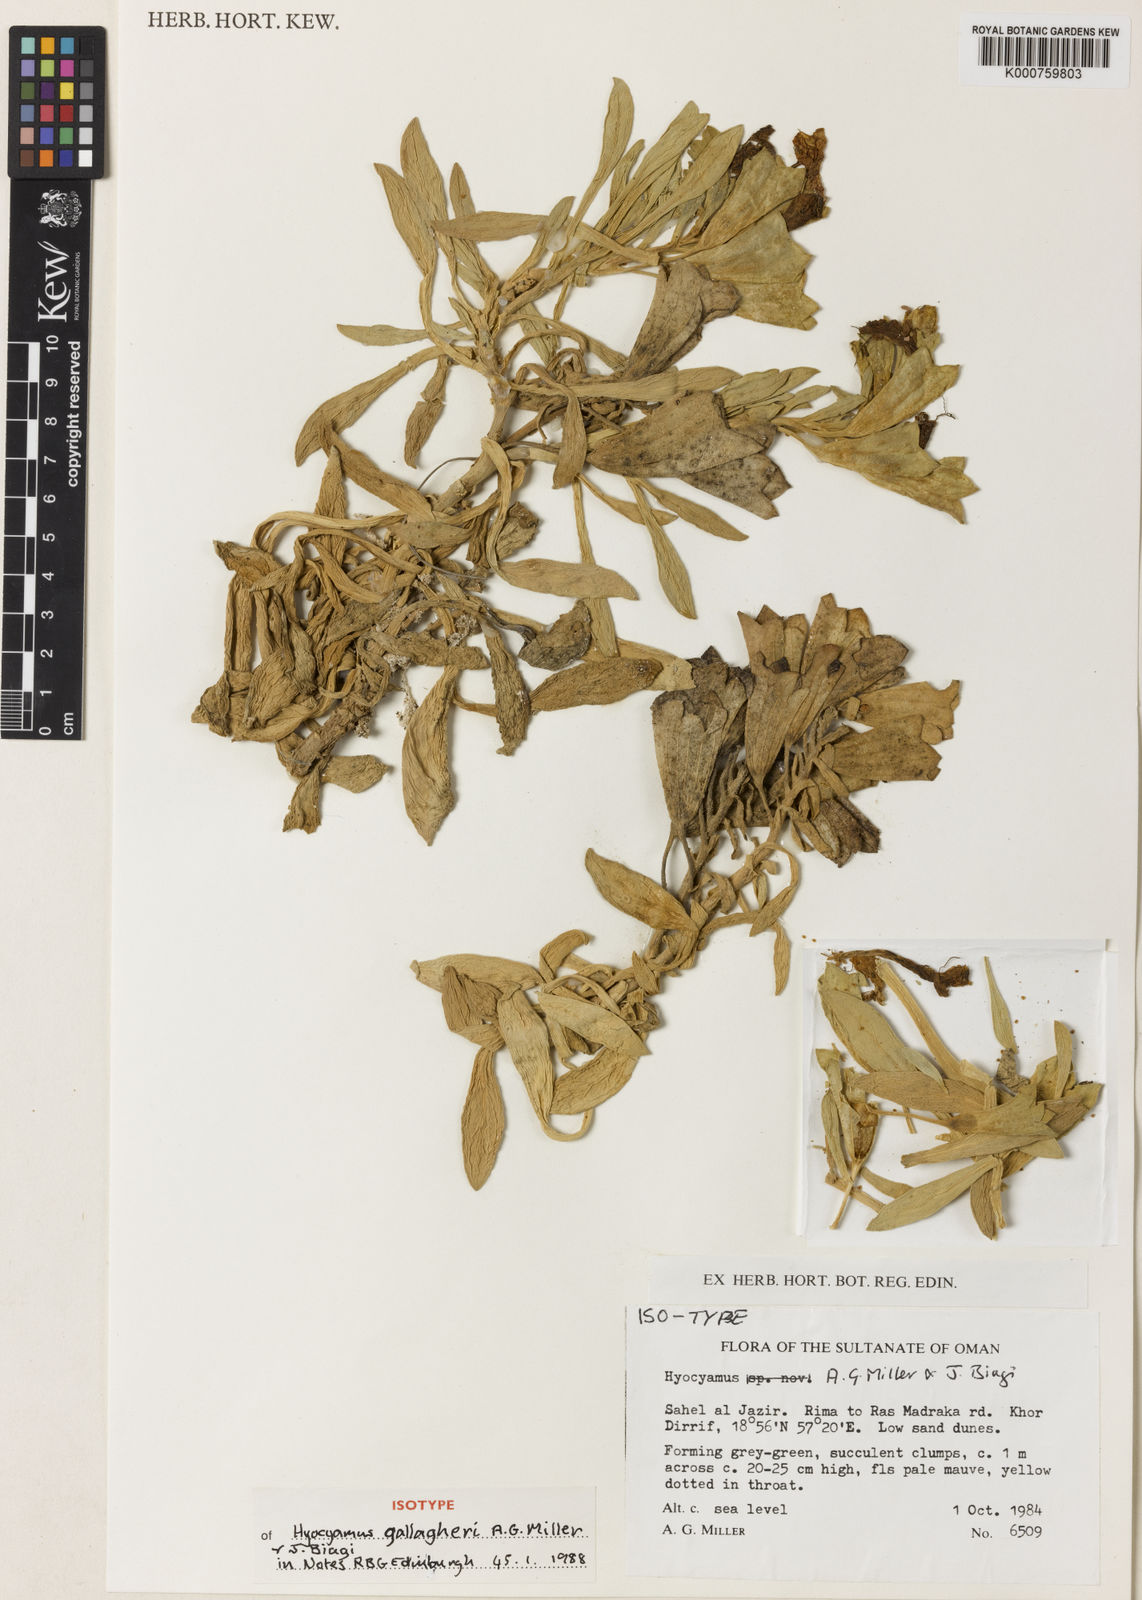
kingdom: Plantae
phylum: Tracheophyta
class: Magnoliopsida
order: Solanales
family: Solanaceae
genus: Hyoscyamus
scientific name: Hyoscyamus gallagheri
